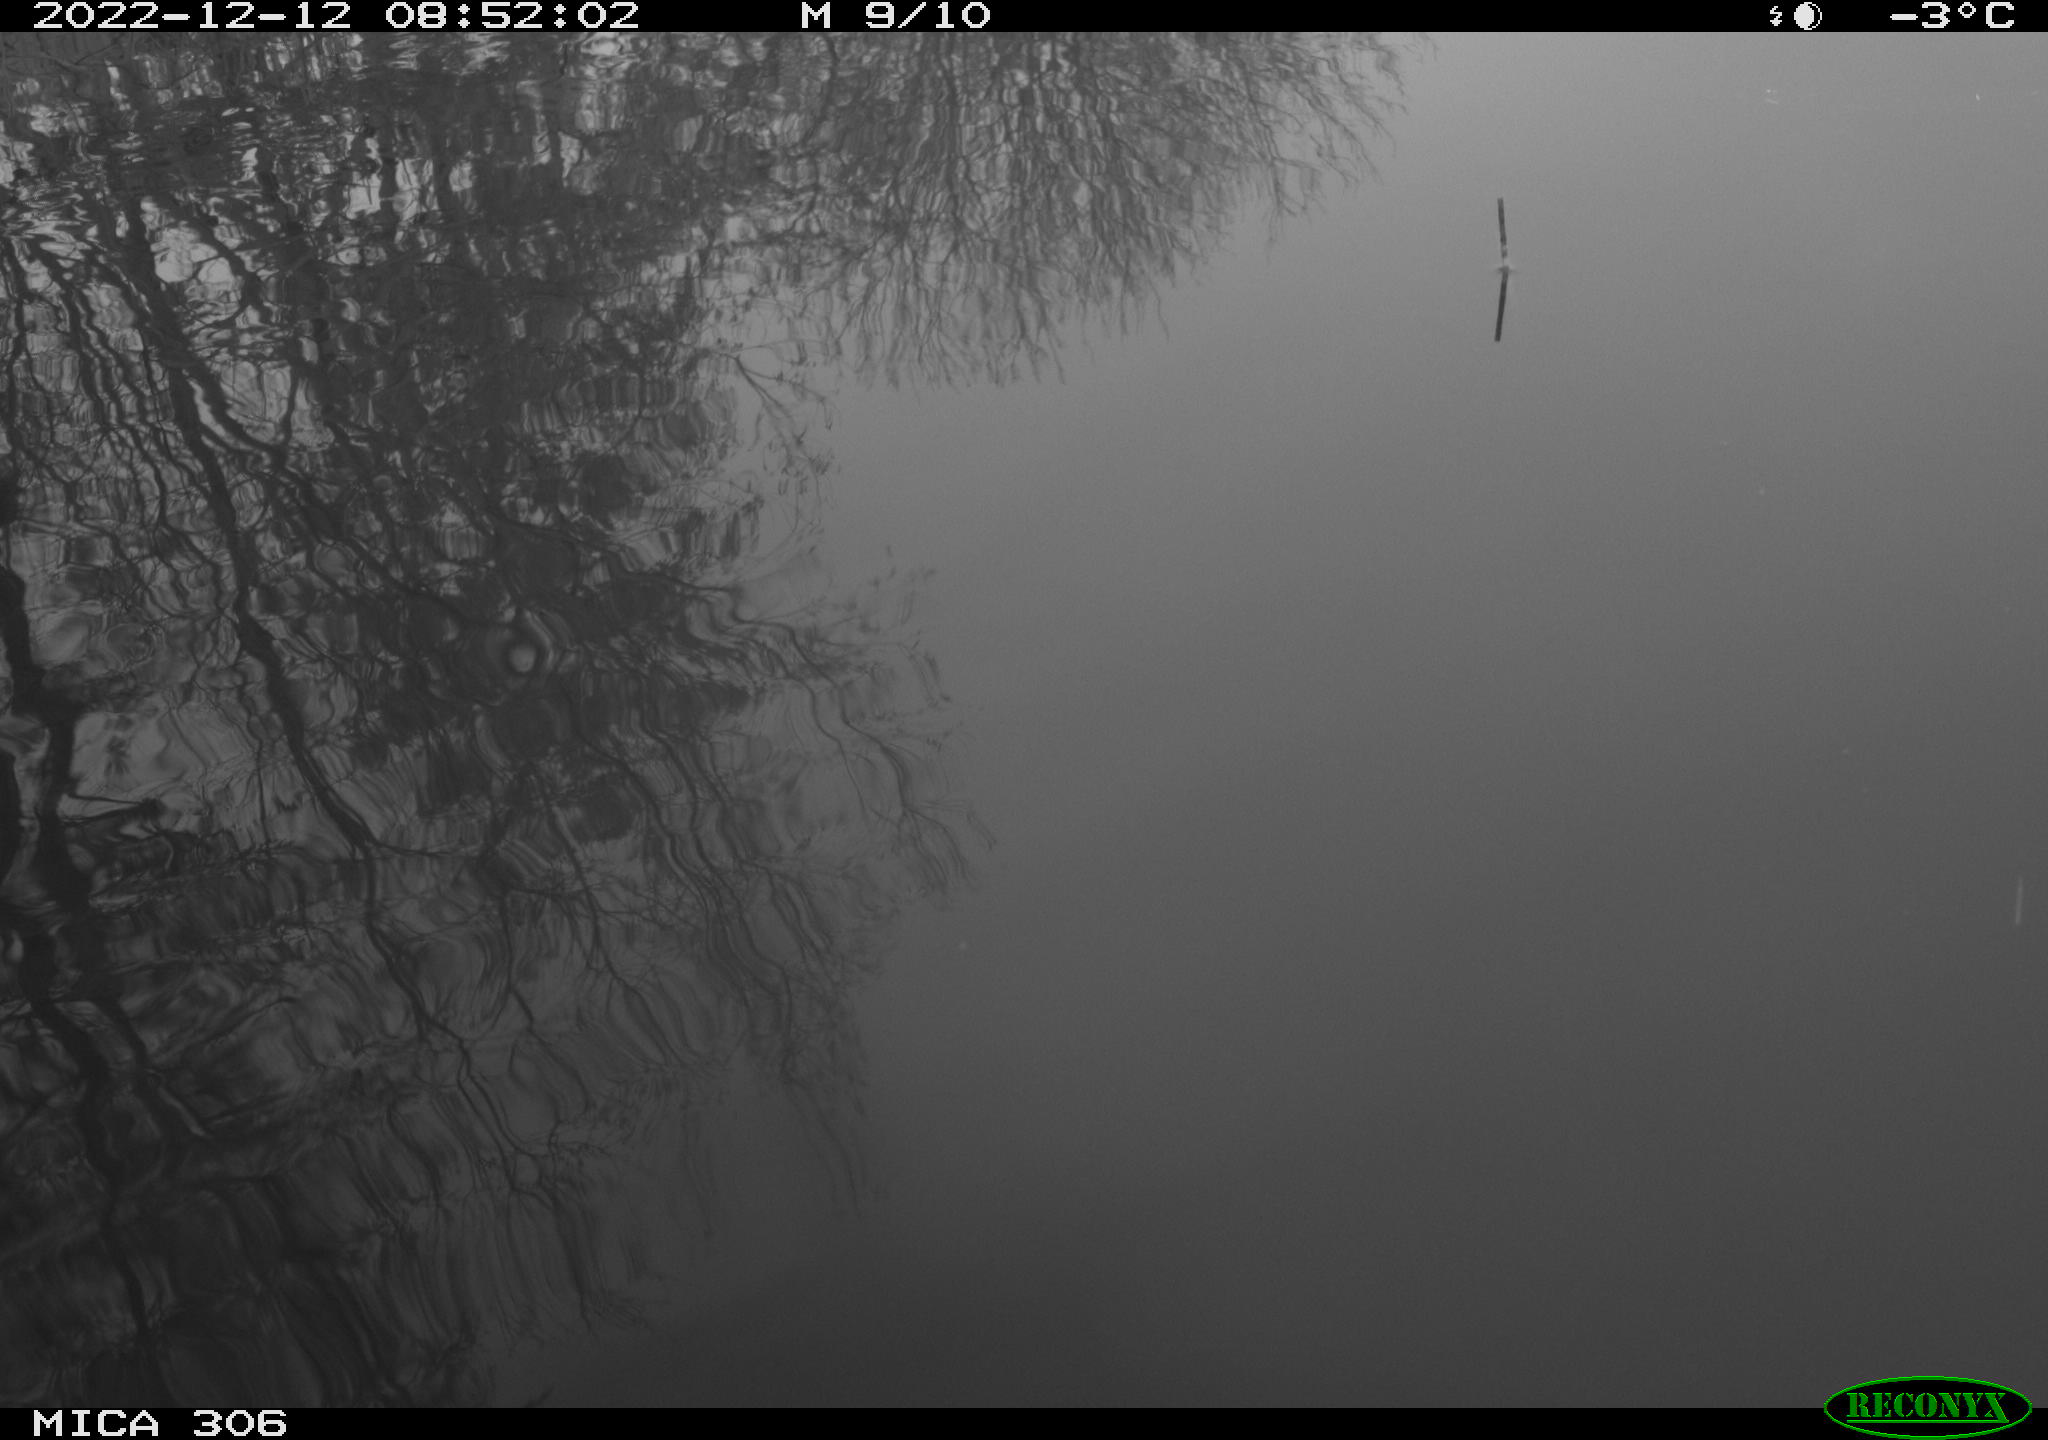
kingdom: Animalia
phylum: Chordata
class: Aves
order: Anseriformes
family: Anatidae
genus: Anas
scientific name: Anas
